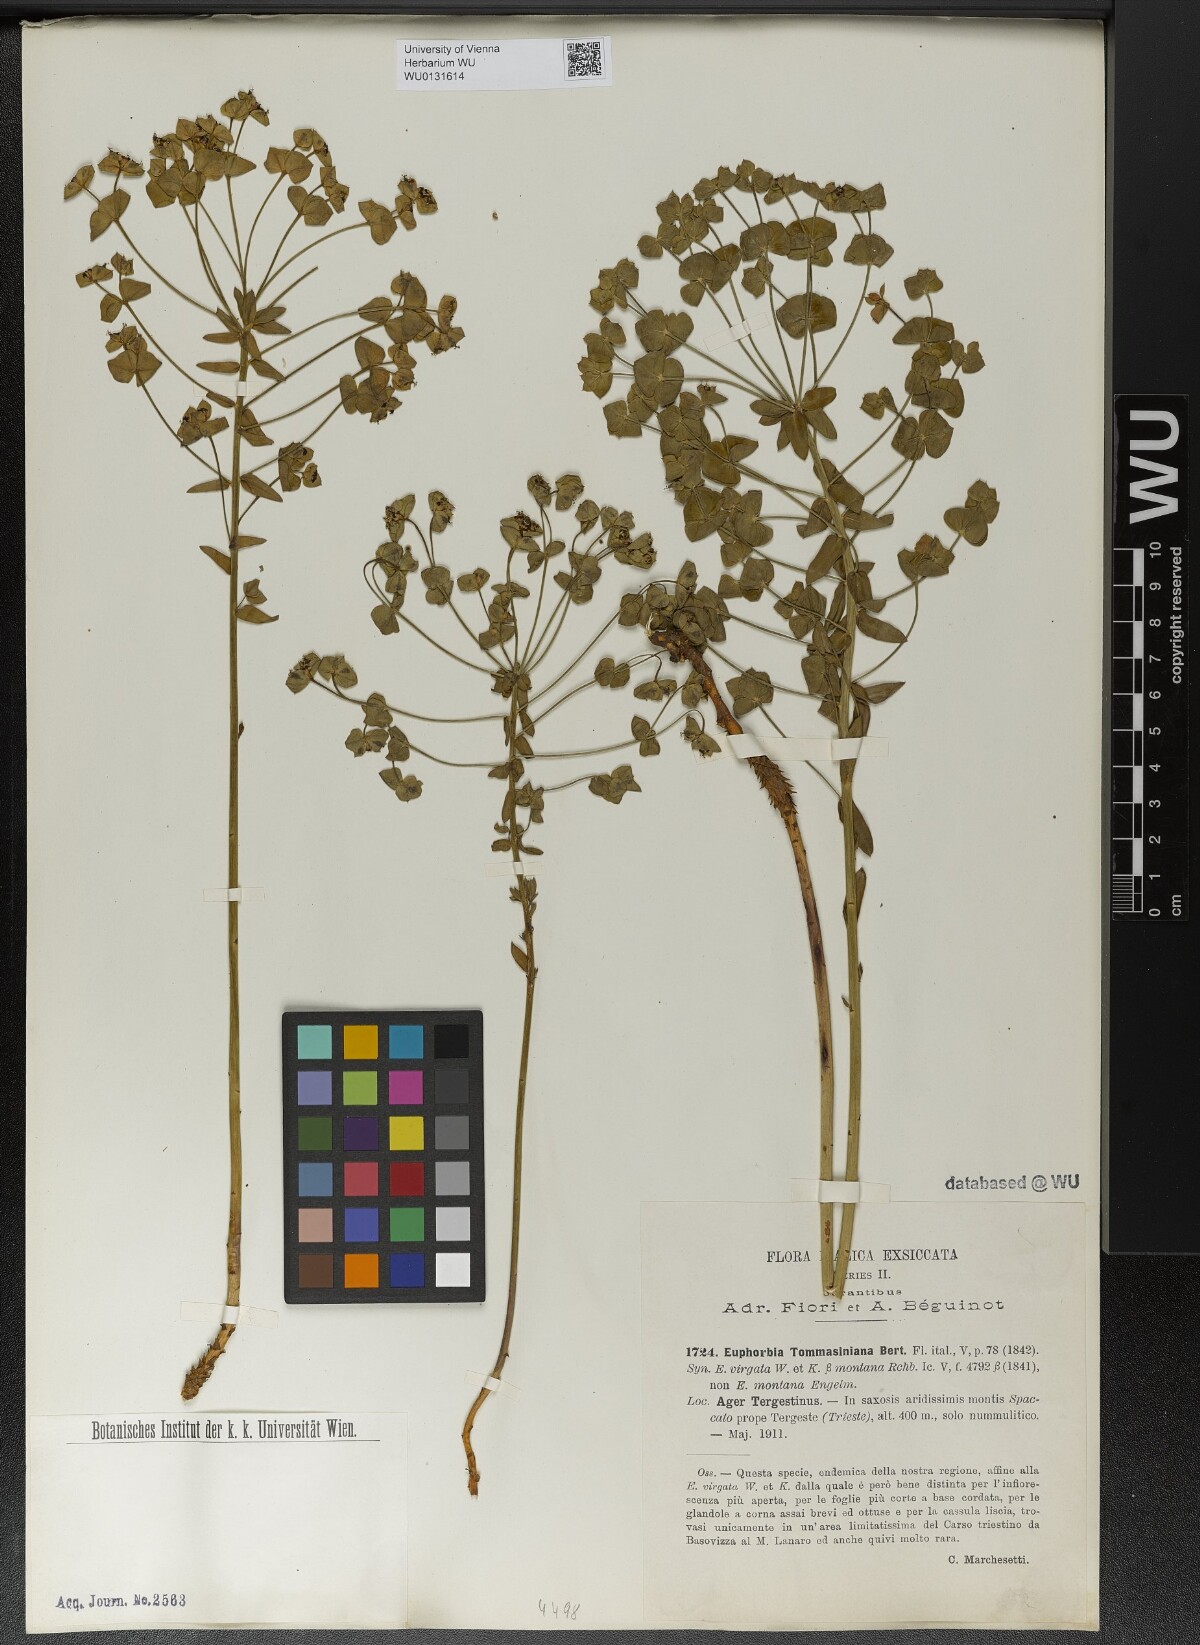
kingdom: Plantae
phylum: Tracheophyta
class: Magnoliopsida
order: Malpighiales
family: Euphorbiaceae
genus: Euphorbia
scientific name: Euphorbia tommasiniana
